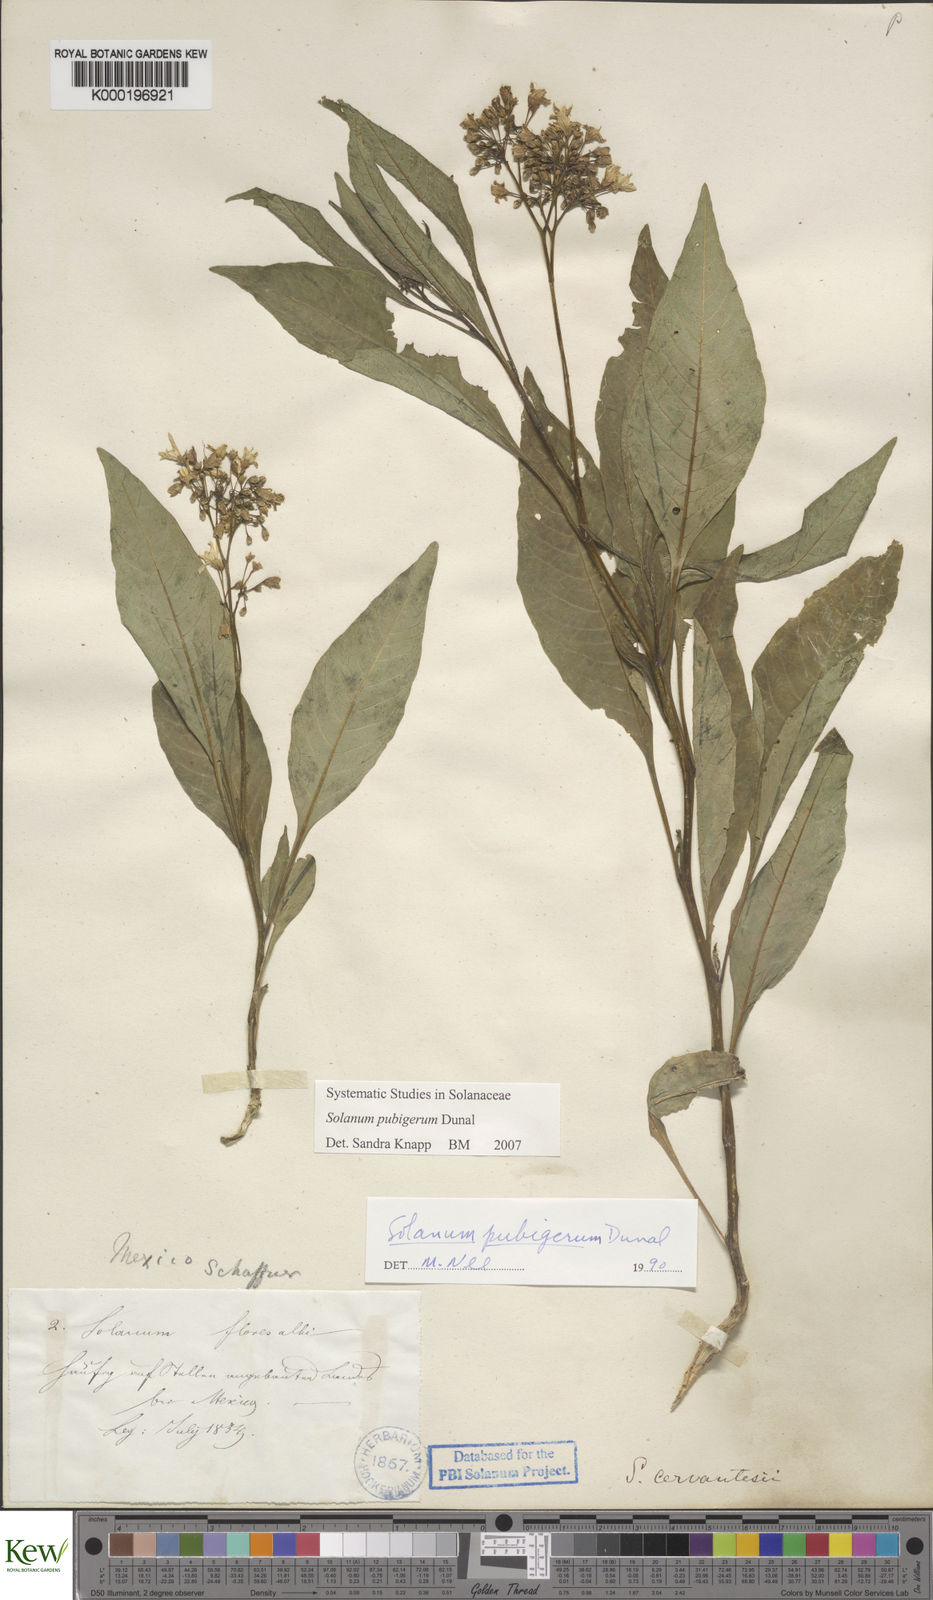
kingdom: Plantae
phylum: Tracheophyta
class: Magnoliopsida
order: Solanales
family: Solanaceae
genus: Solanum
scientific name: Solanum pubigerum
